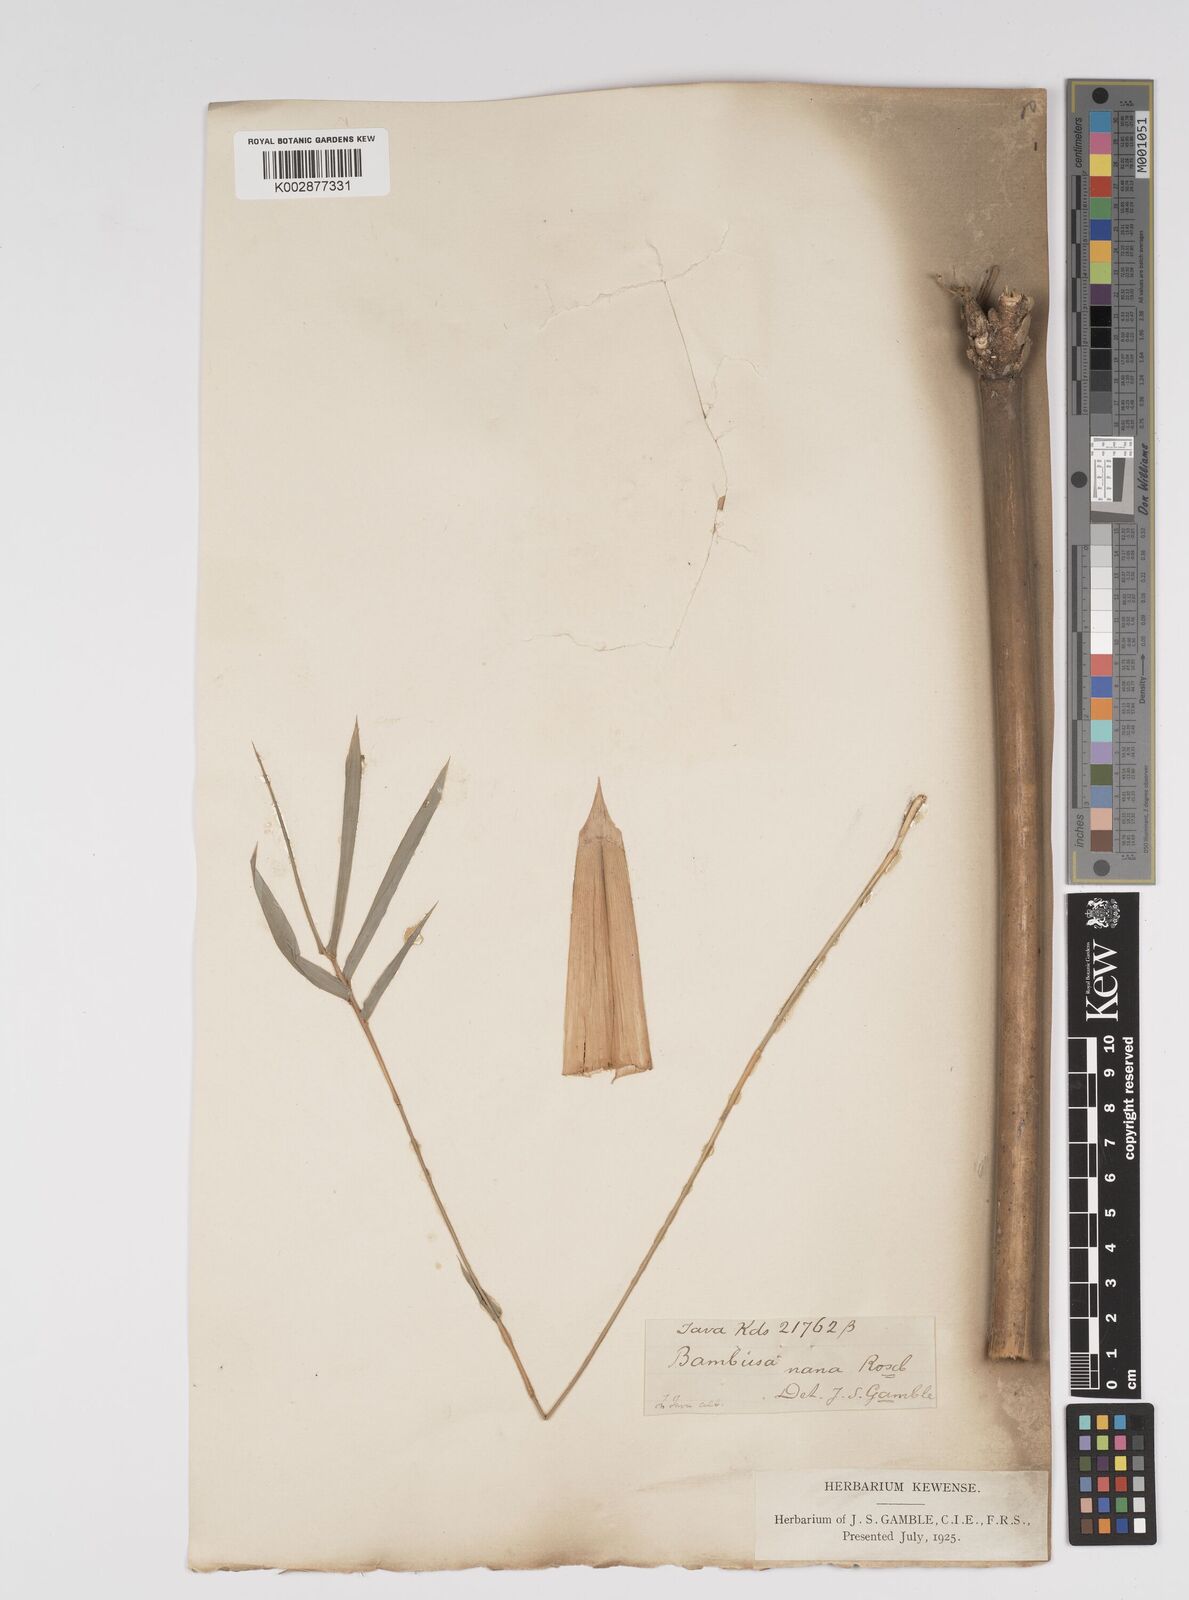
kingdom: Plantae
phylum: Tracheophyta
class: Liliopsida
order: Poales
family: Poaceae
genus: Bambusa
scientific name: Bambusa multiplex
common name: Hedge bamboo
